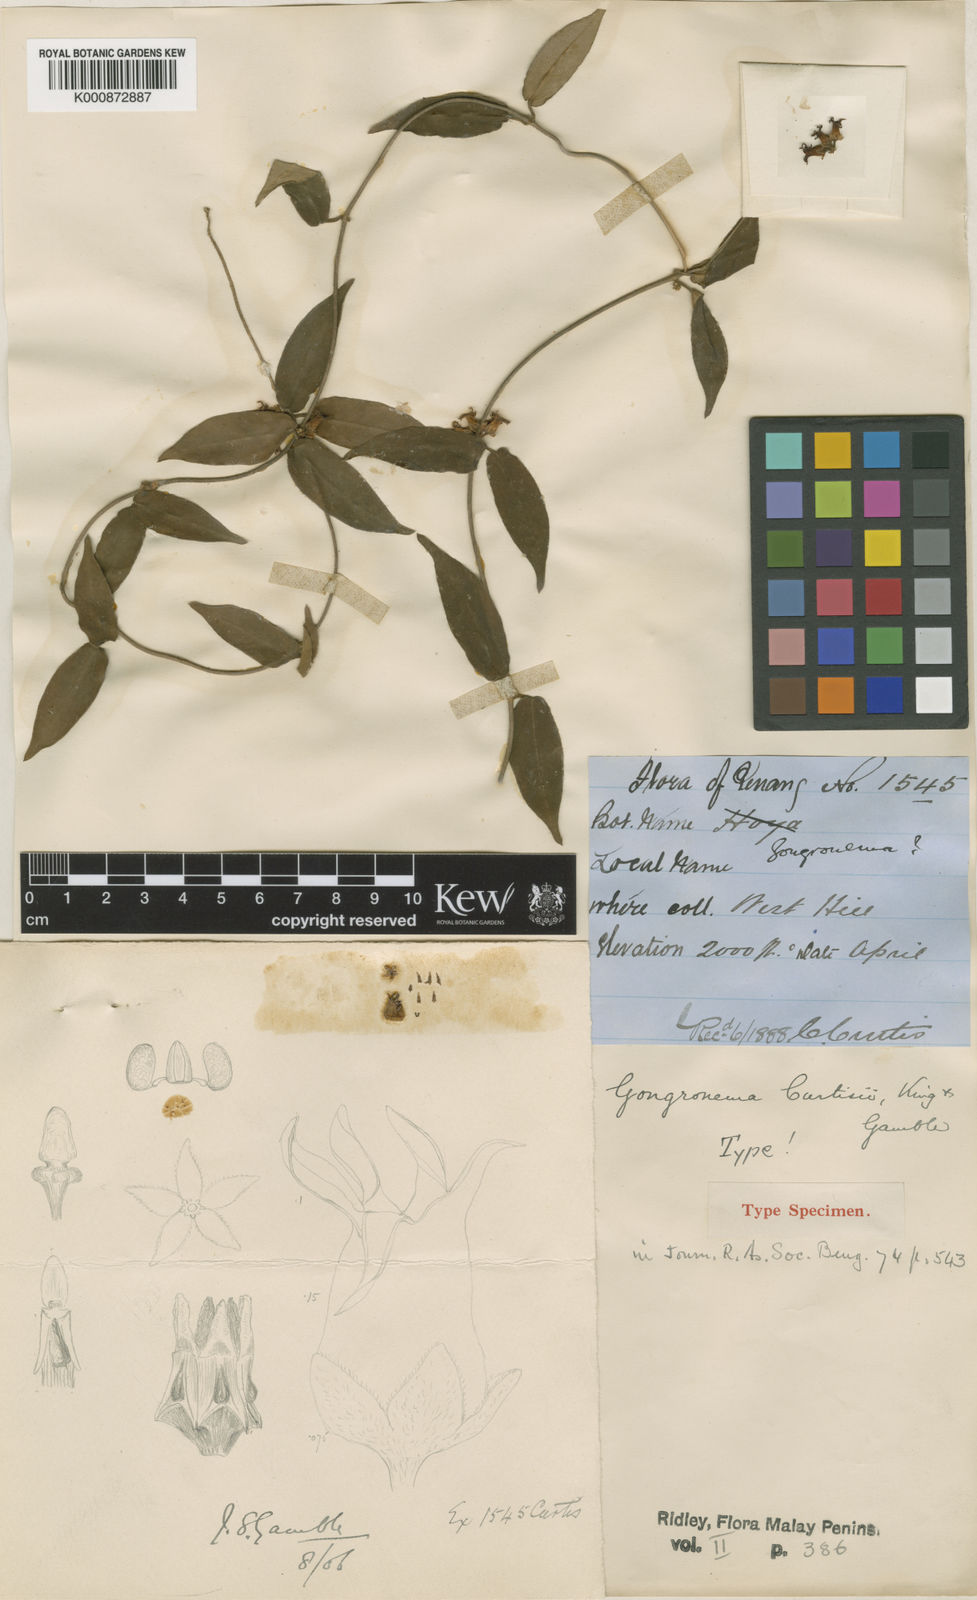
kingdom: Plantae
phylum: Tracheophyta
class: Magnoliopsida
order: Gentianales
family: Apocynaceae
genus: Gongronema
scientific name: Gongronema curtisii
